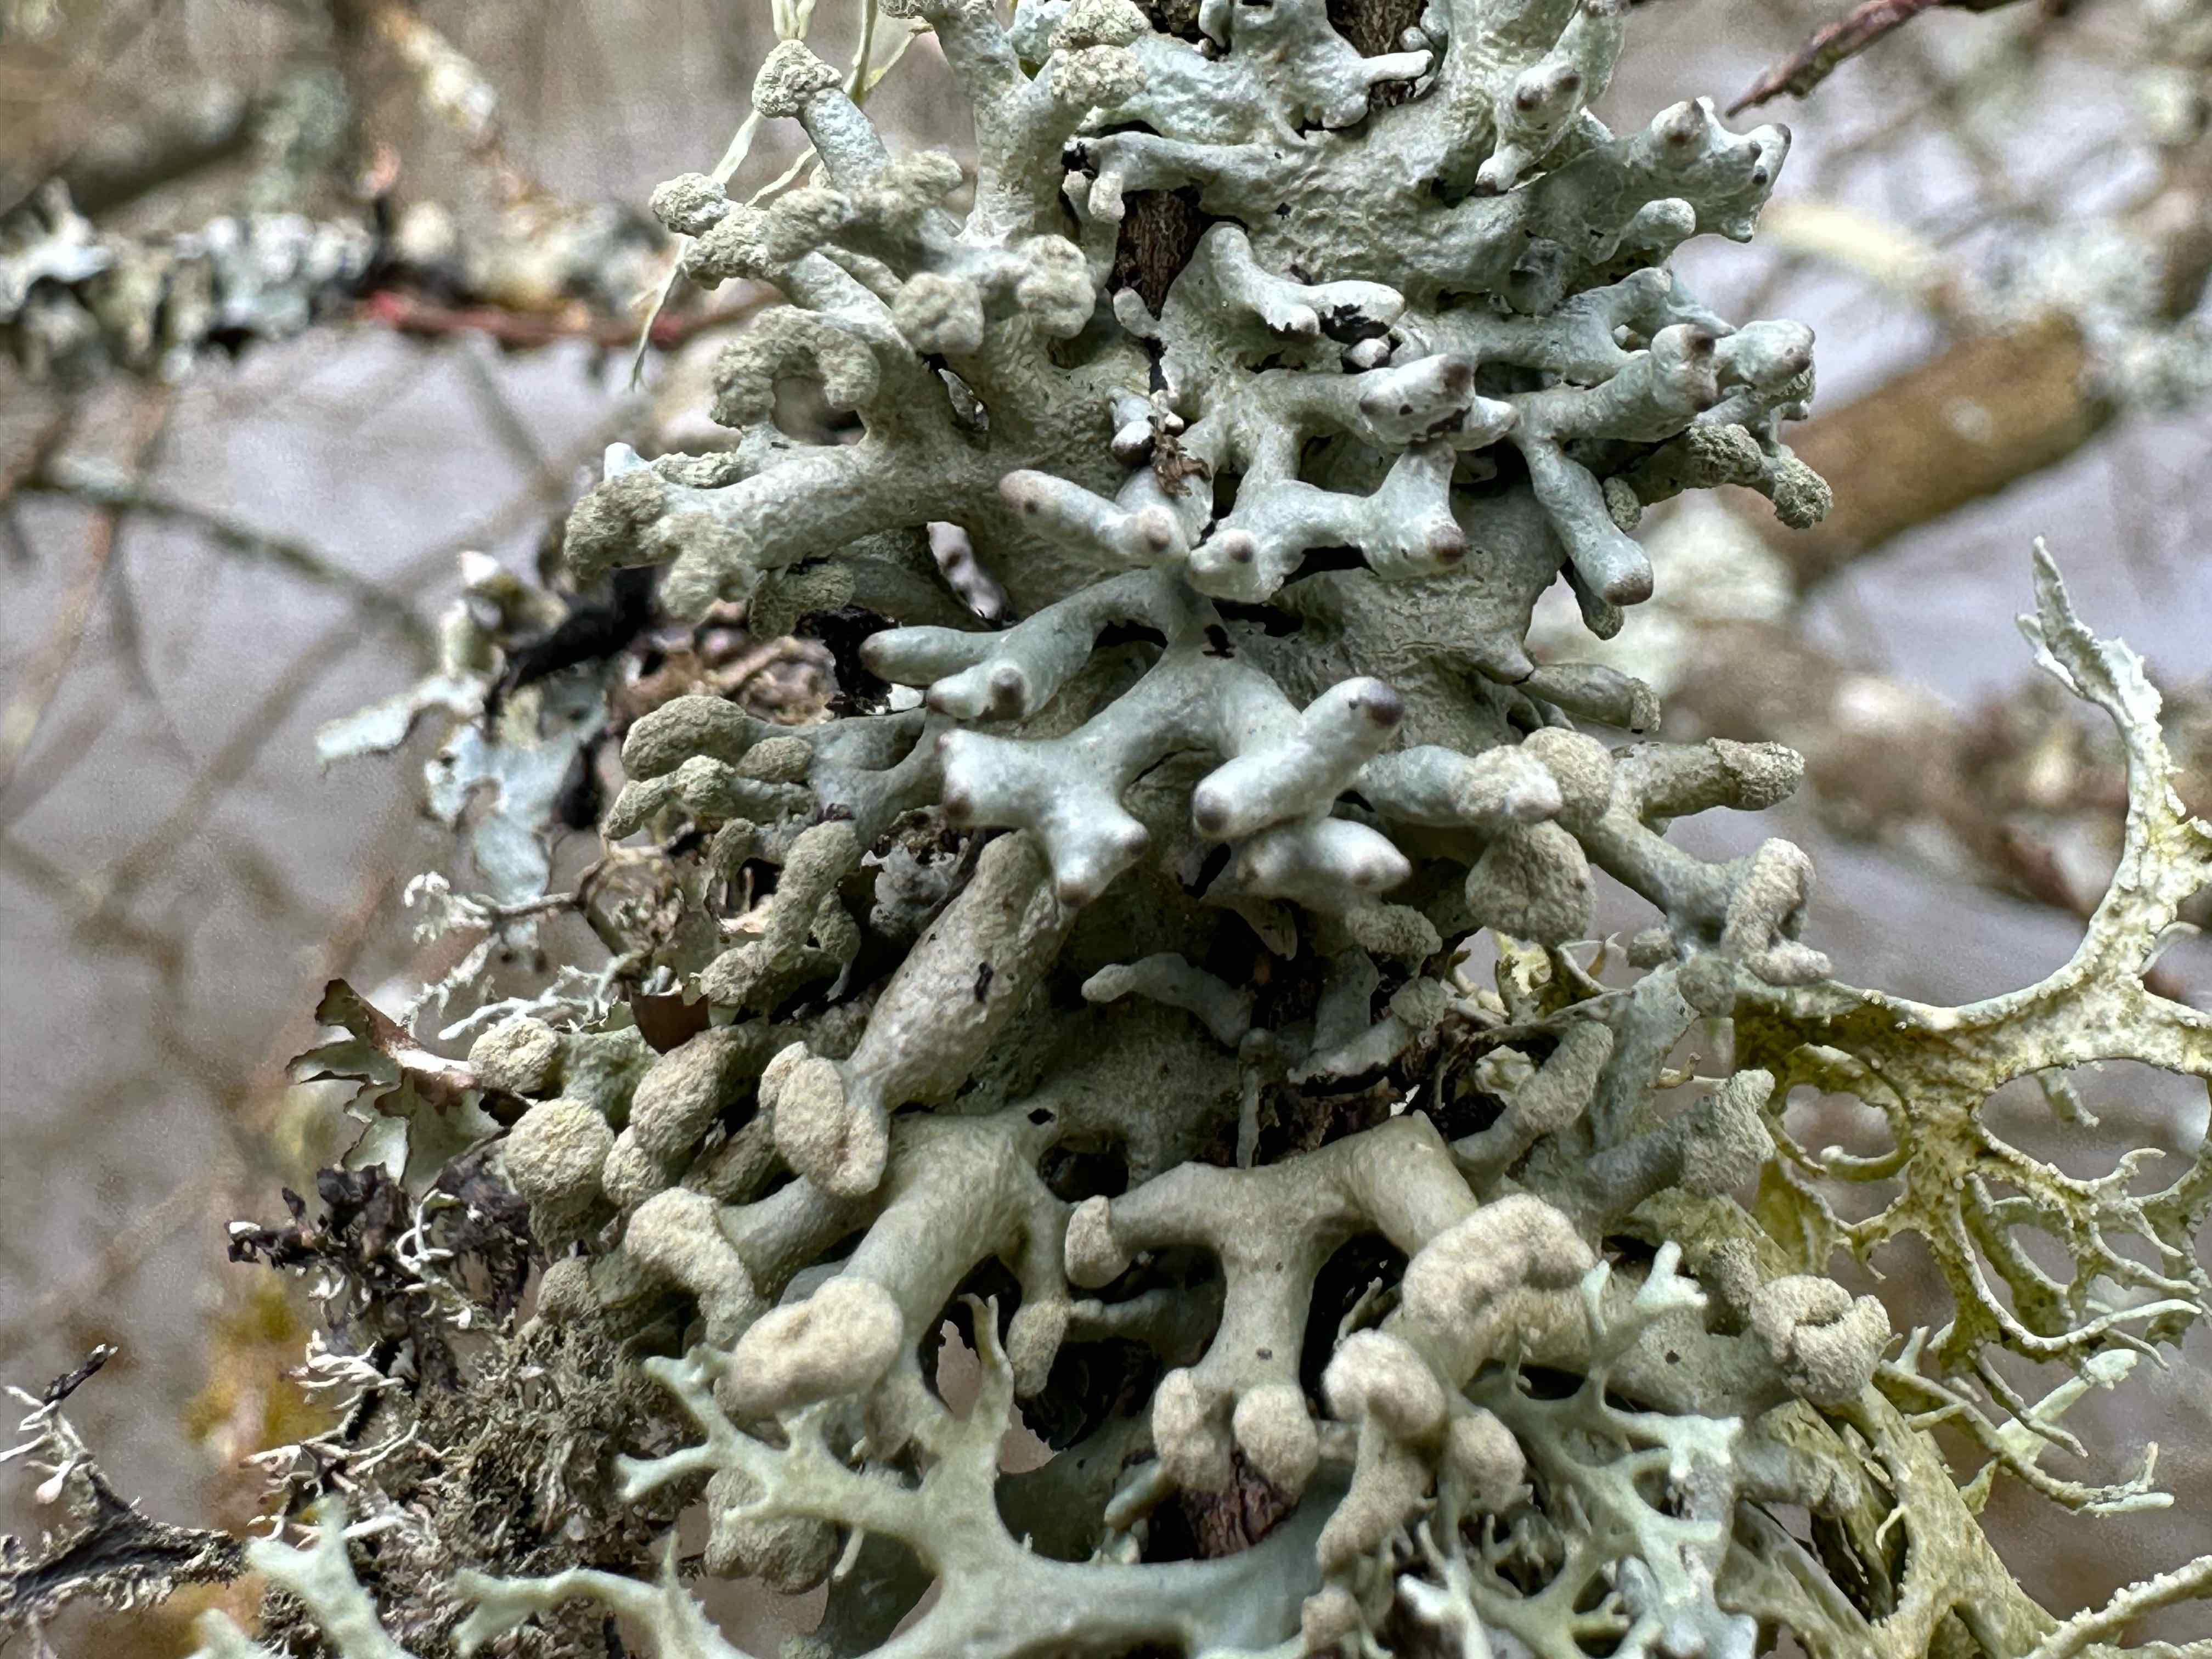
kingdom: Fungi
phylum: Ascomycota
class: Lecanoromycetes
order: Lecanorales
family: Parmeliaceae
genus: Hypogymnia
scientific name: Hypogymnia tubulosa
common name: finger-kvistlav
